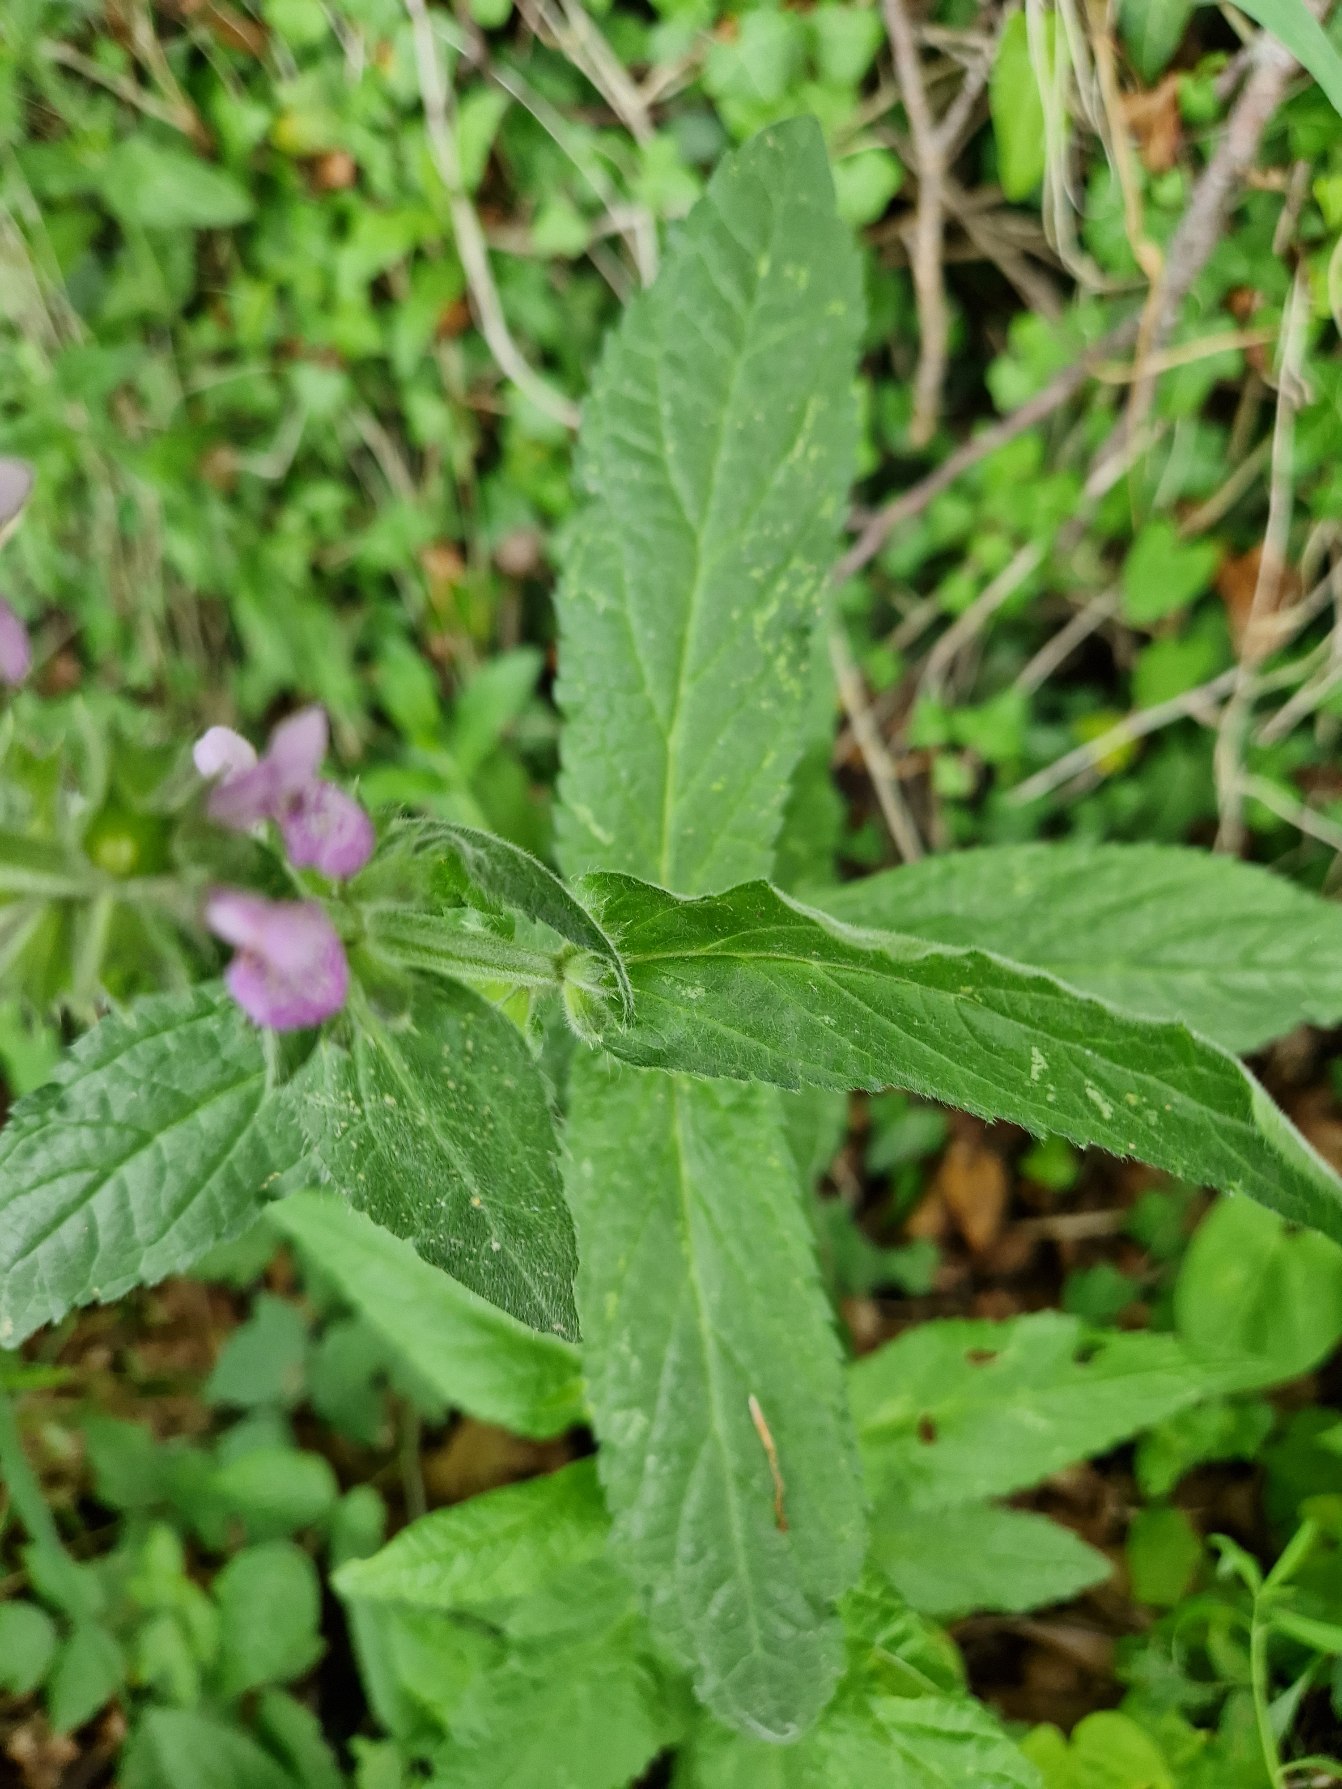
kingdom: Plantae
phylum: Tracheophyta
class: Magnoliopsida
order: Lamiales
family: Lamiaceae
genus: Stachys
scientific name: Stachys palustris
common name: Kær-galtetand
